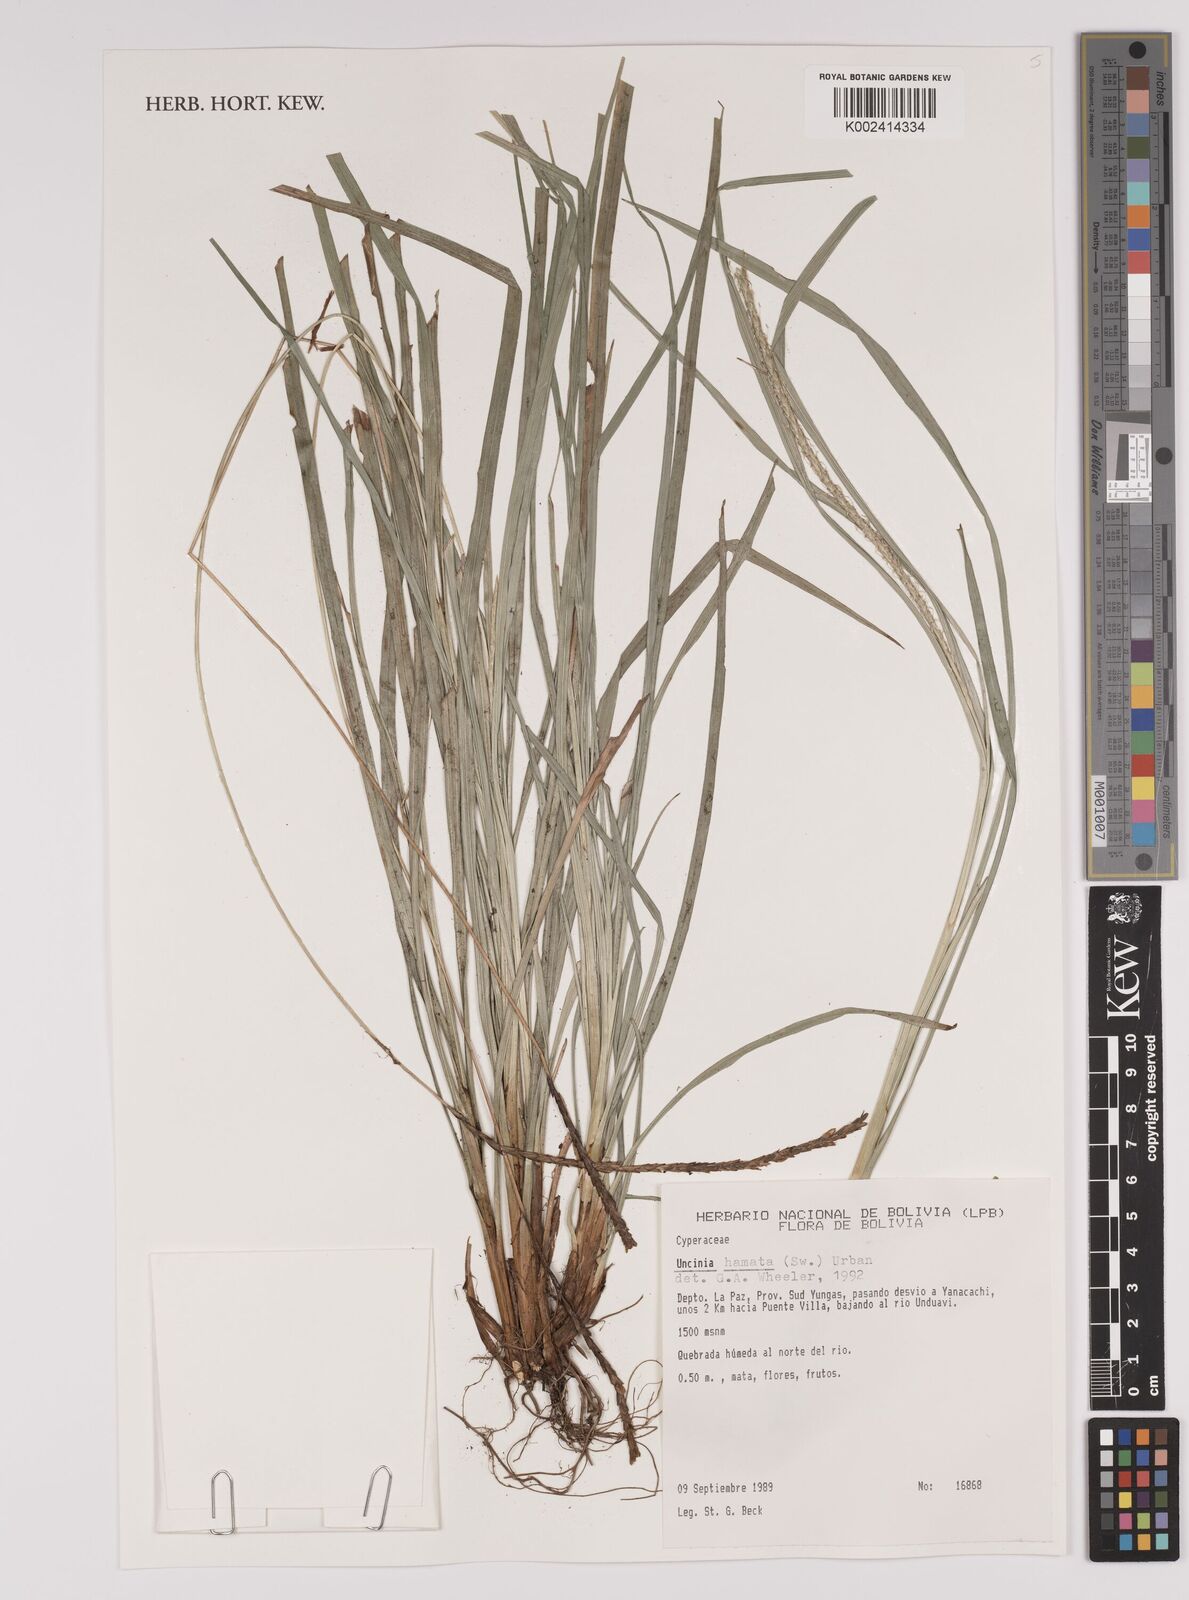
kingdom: Plantae
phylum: Tracheophyta
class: Liliopsida
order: Poales
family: Cyperaceae
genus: Carex
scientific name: Carex hamata
